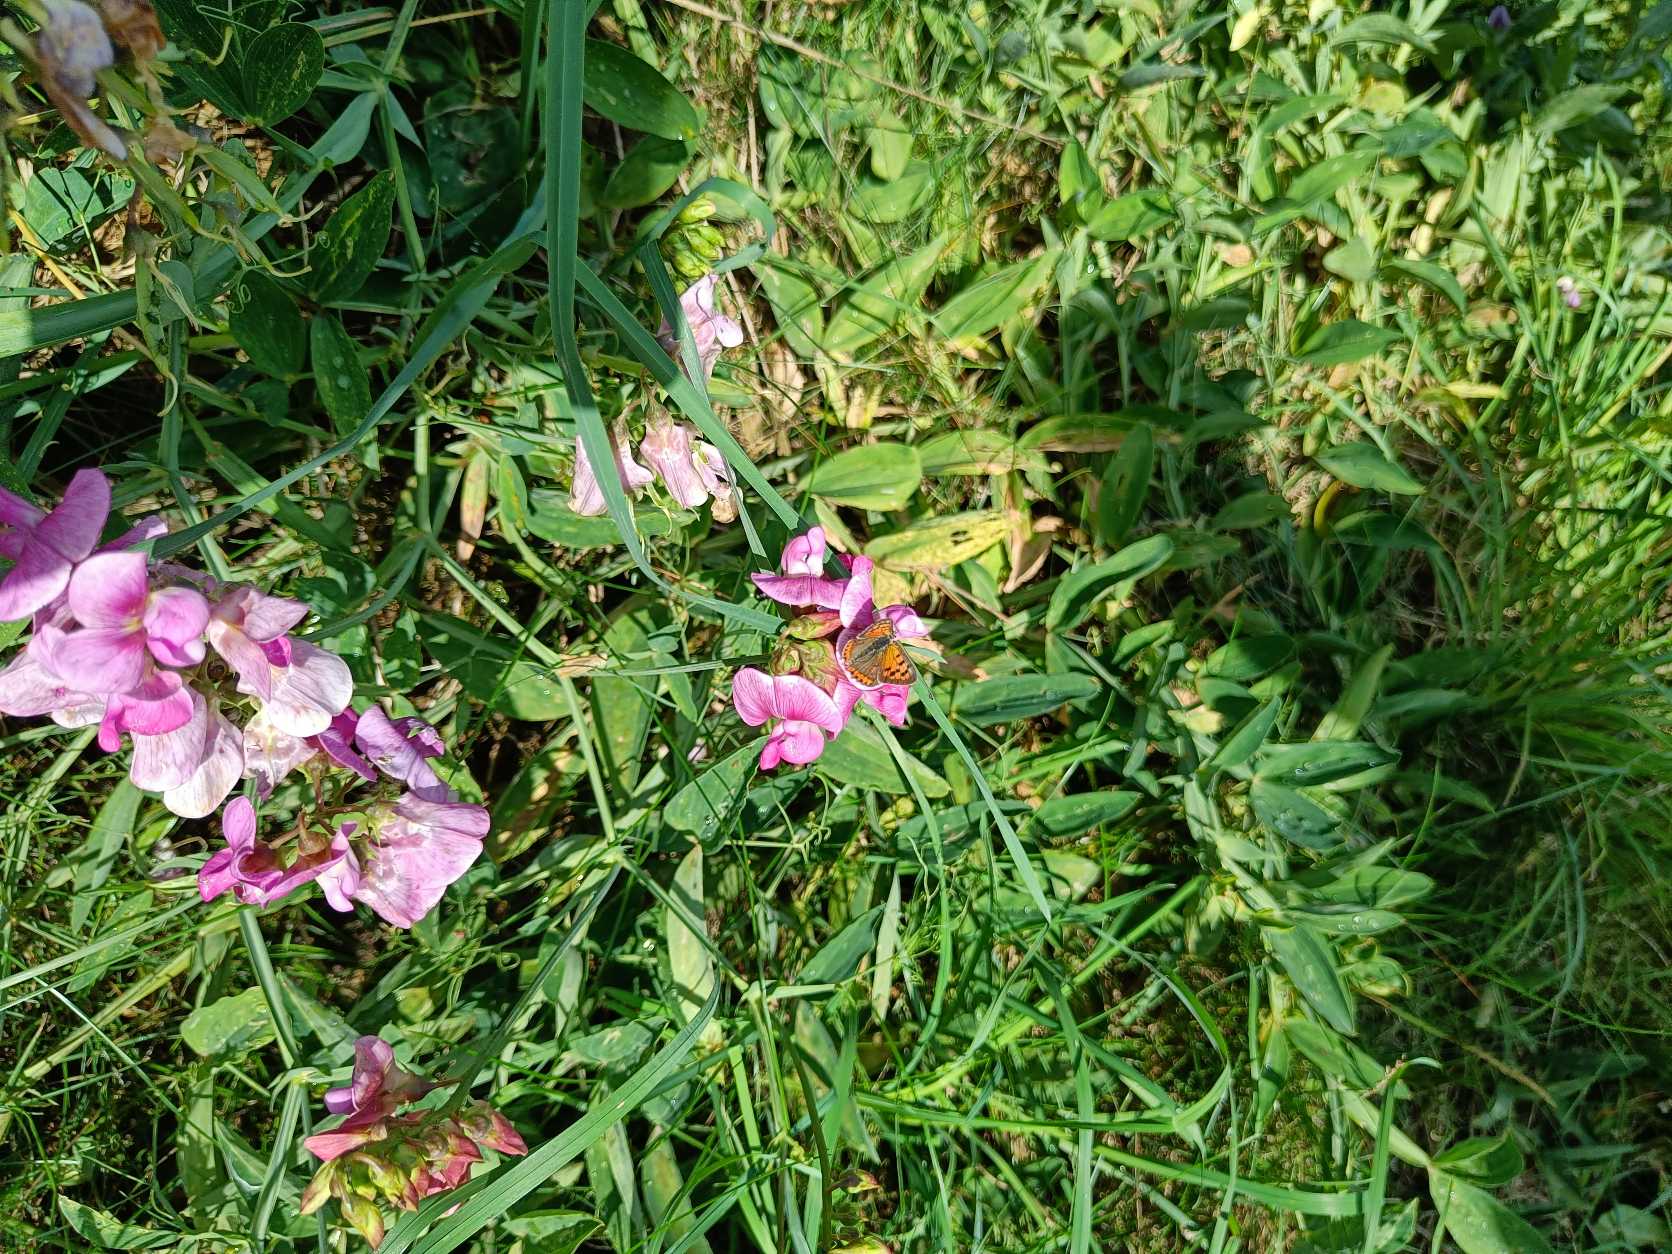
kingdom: Animalia
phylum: Arthropoda
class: Insecta
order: Lepidoptera
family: Lycaenidae
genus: Lycaena
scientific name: Lycaena phlaeas
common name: Lille ildfugl
